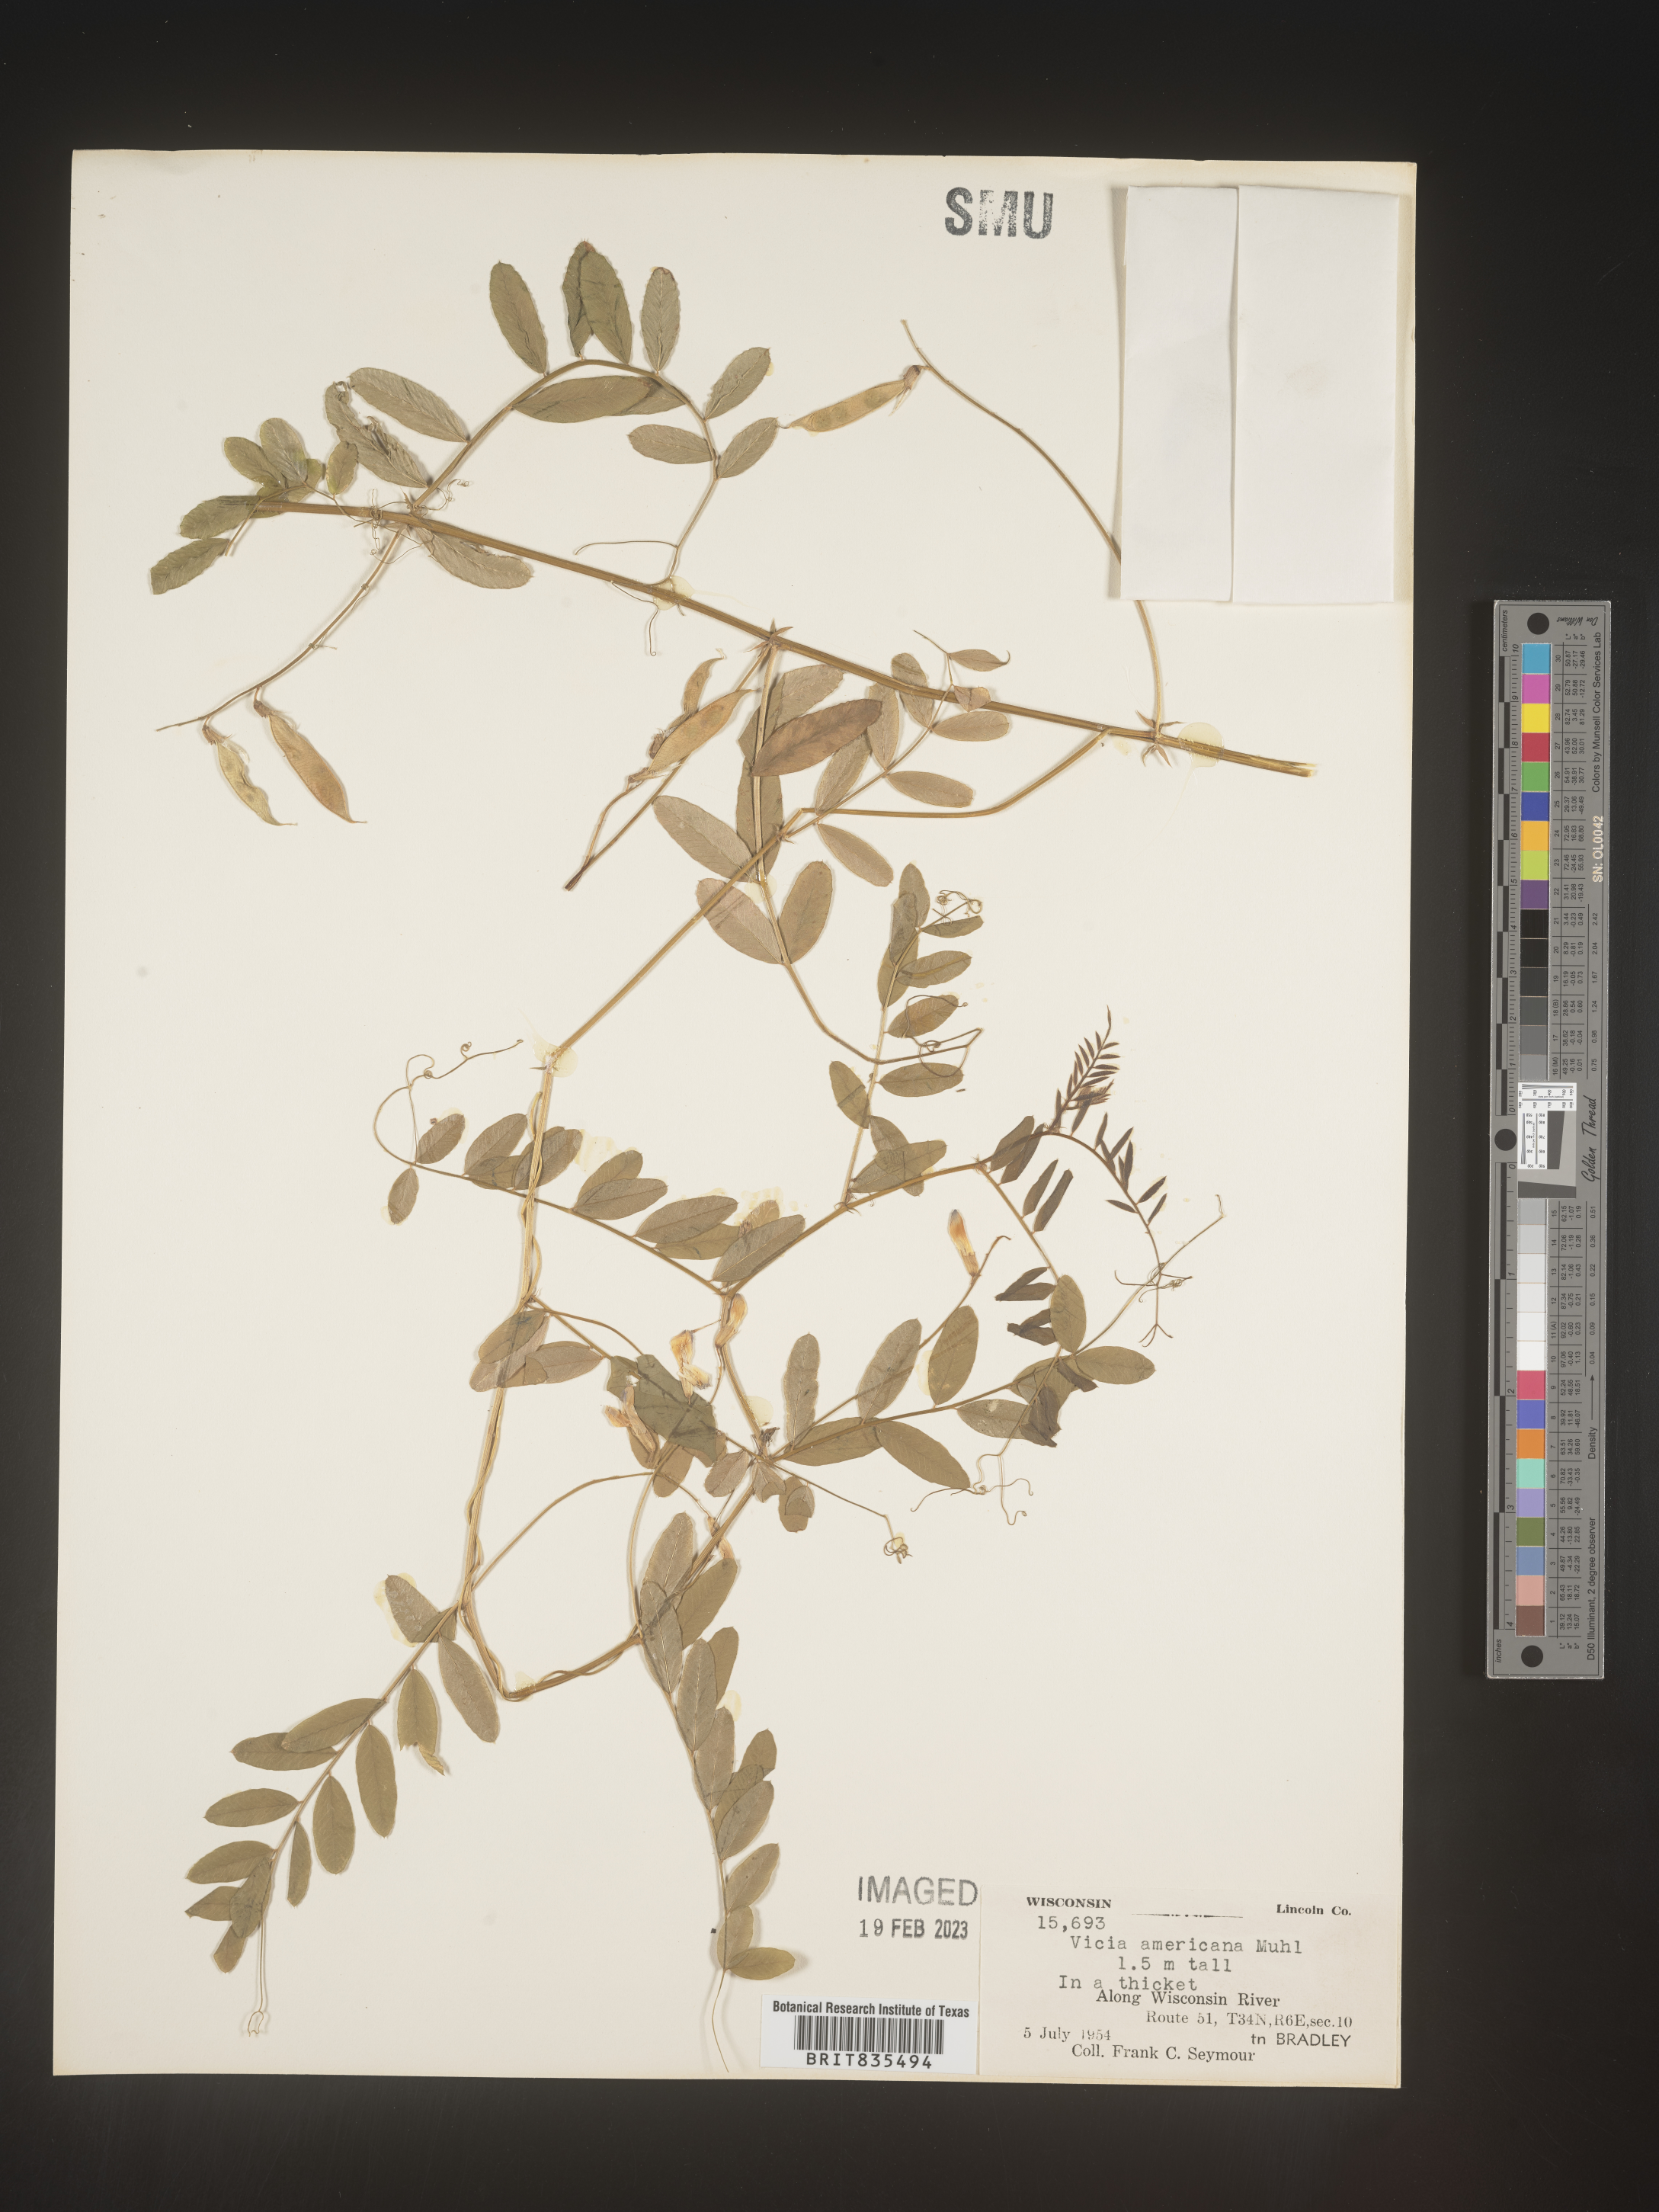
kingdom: Plantae
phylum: Tracheophyta
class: Magnoliopsida
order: Fabales
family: Fabaceae
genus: Vicia
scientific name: Vicia americana
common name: American vetch
